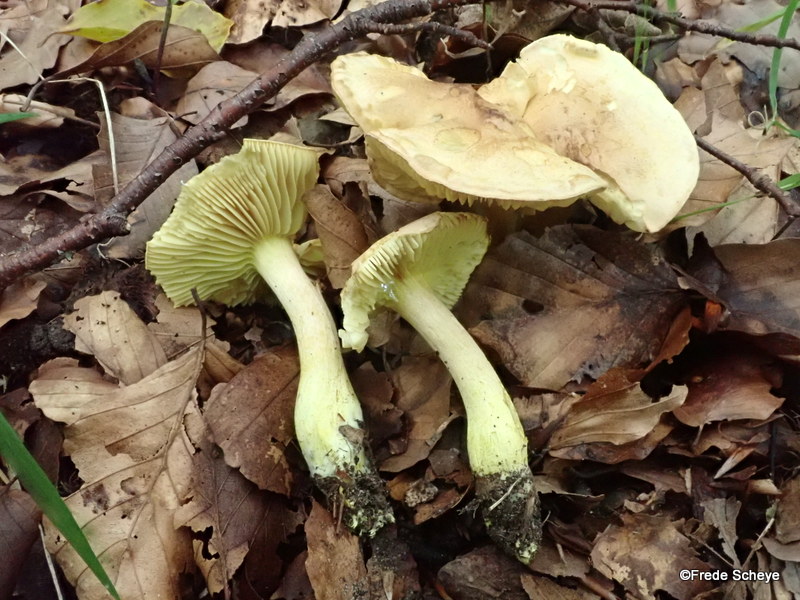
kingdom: Fungi
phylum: Basidiomycota
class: Agaricomycetes
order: Agaricales
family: Tricholomataceae
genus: Tricholoma
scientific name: Tricholoma sulphureum
